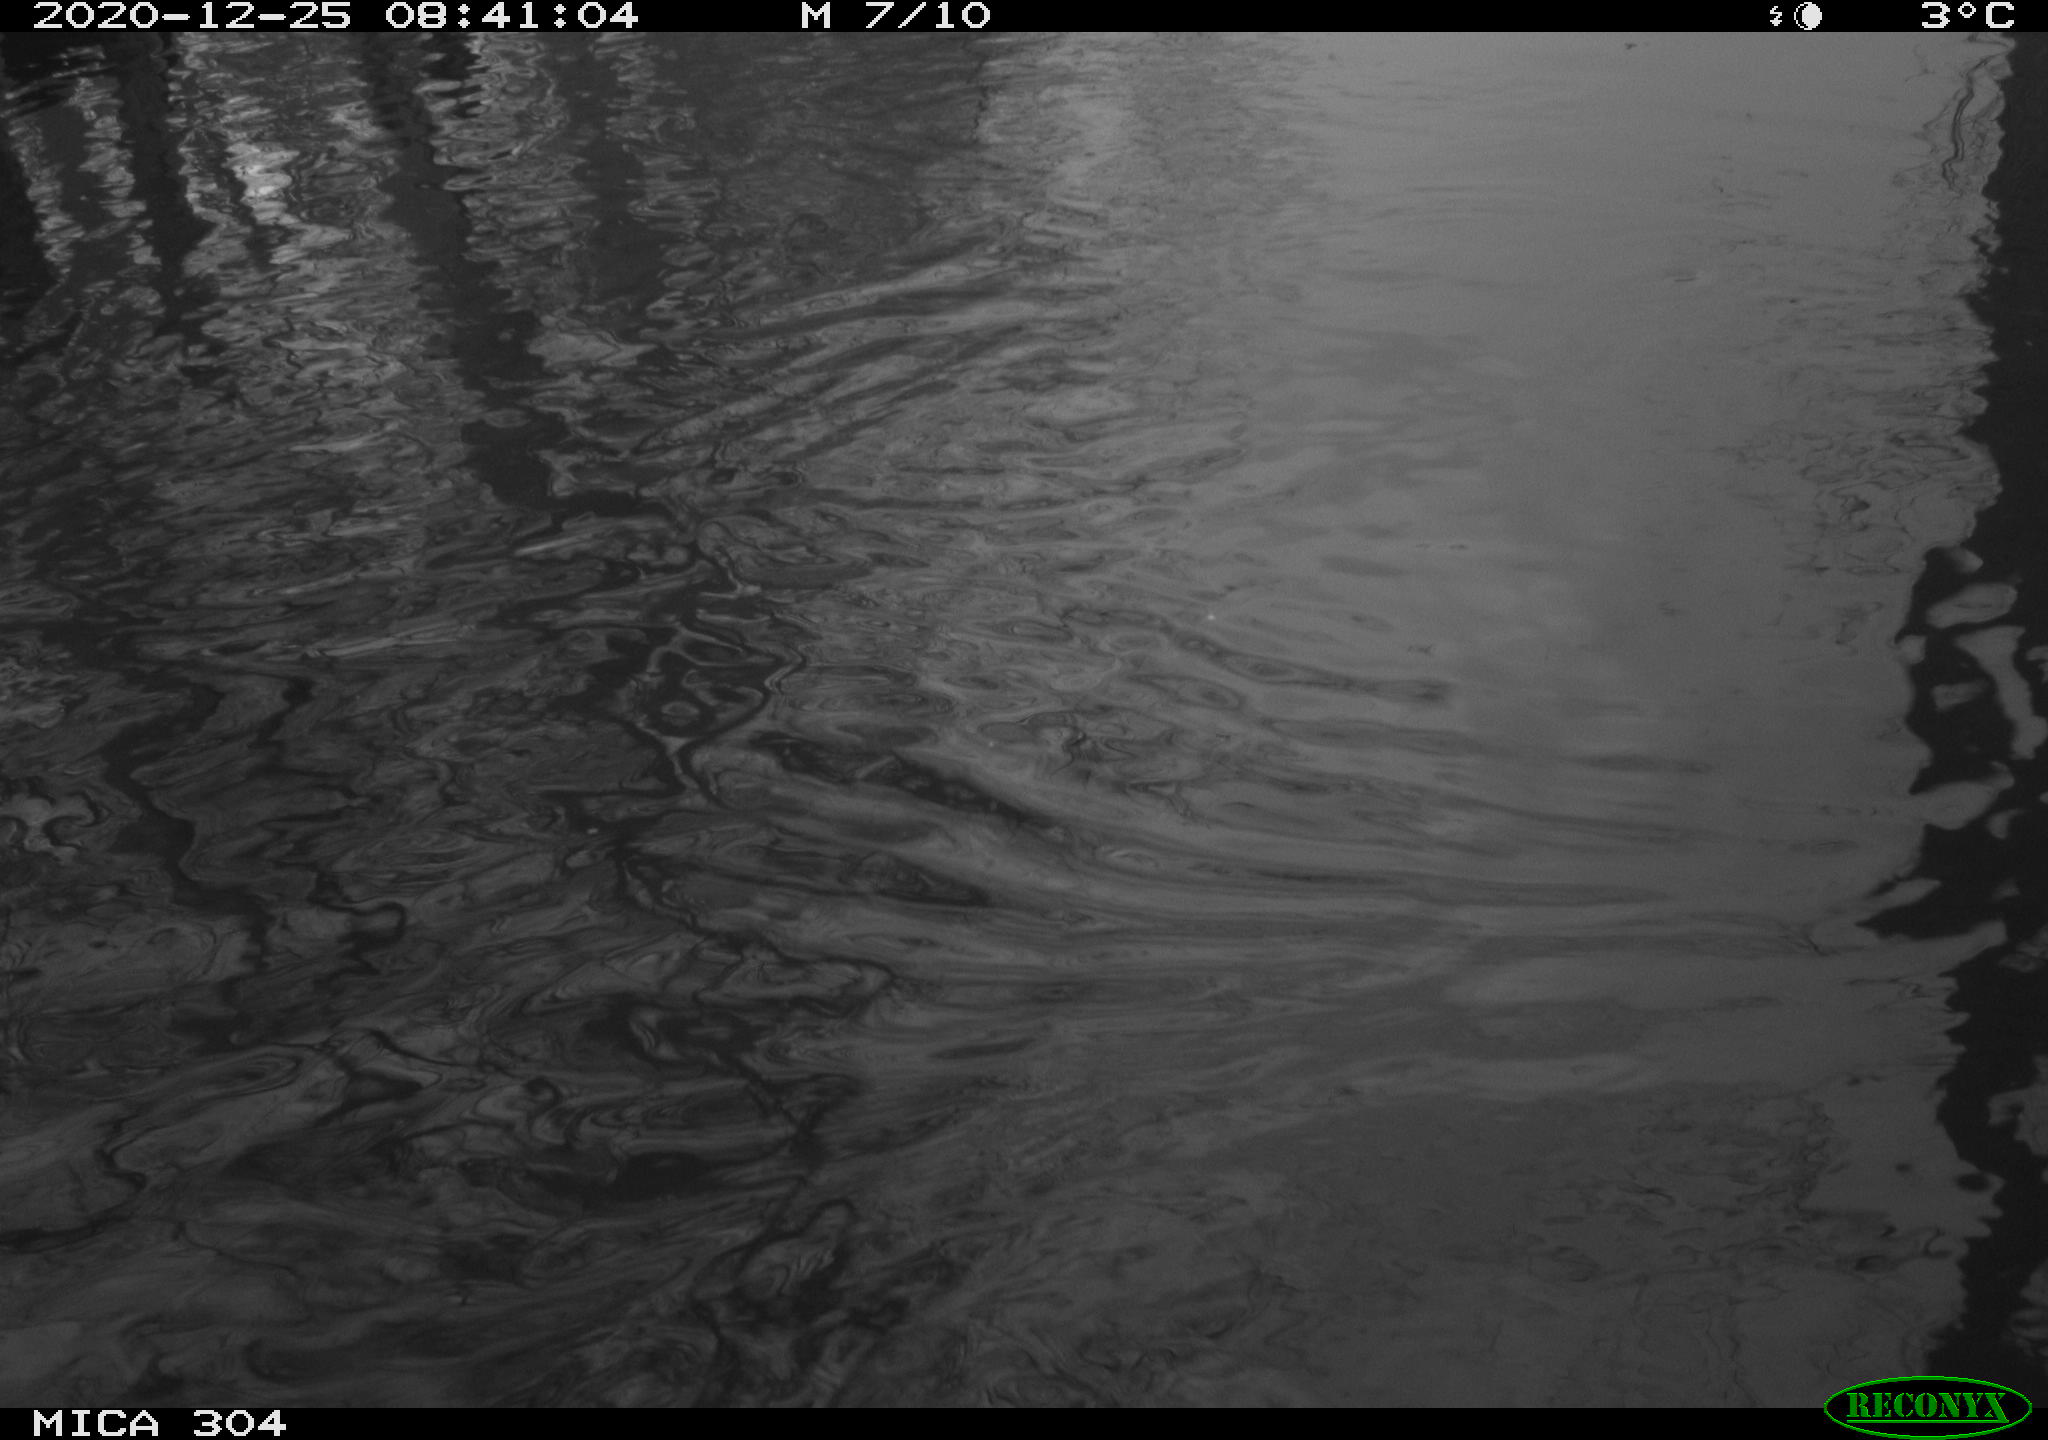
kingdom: Animalia
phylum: Chordata
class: Aves
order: Gruiformes
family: Rallidae
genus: Gallinula
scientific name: Gallinula chloropus
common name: Common moorhen
